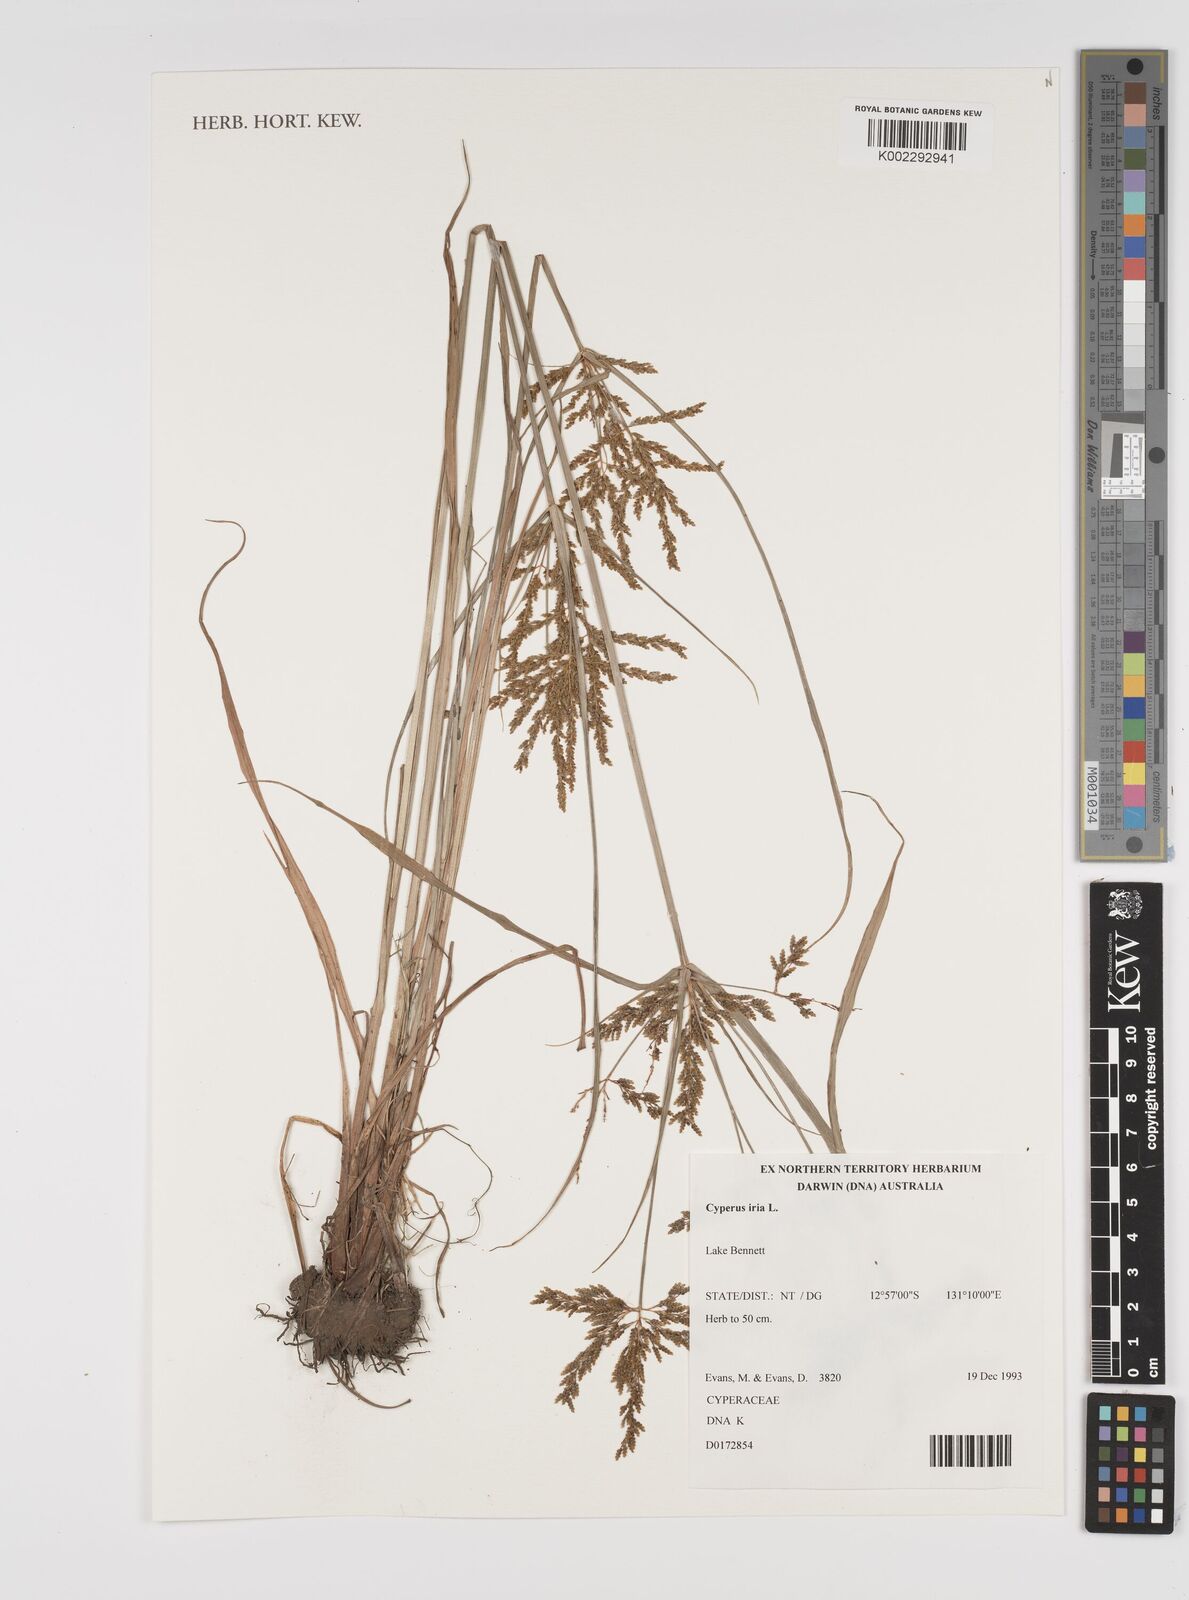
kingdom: Plantae
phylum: Tracheophyta
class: Liliopsida
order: Poales
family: Cyperaceae
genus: Cyperus
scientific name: Cyperus iria
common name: Ricefield flatsedge
